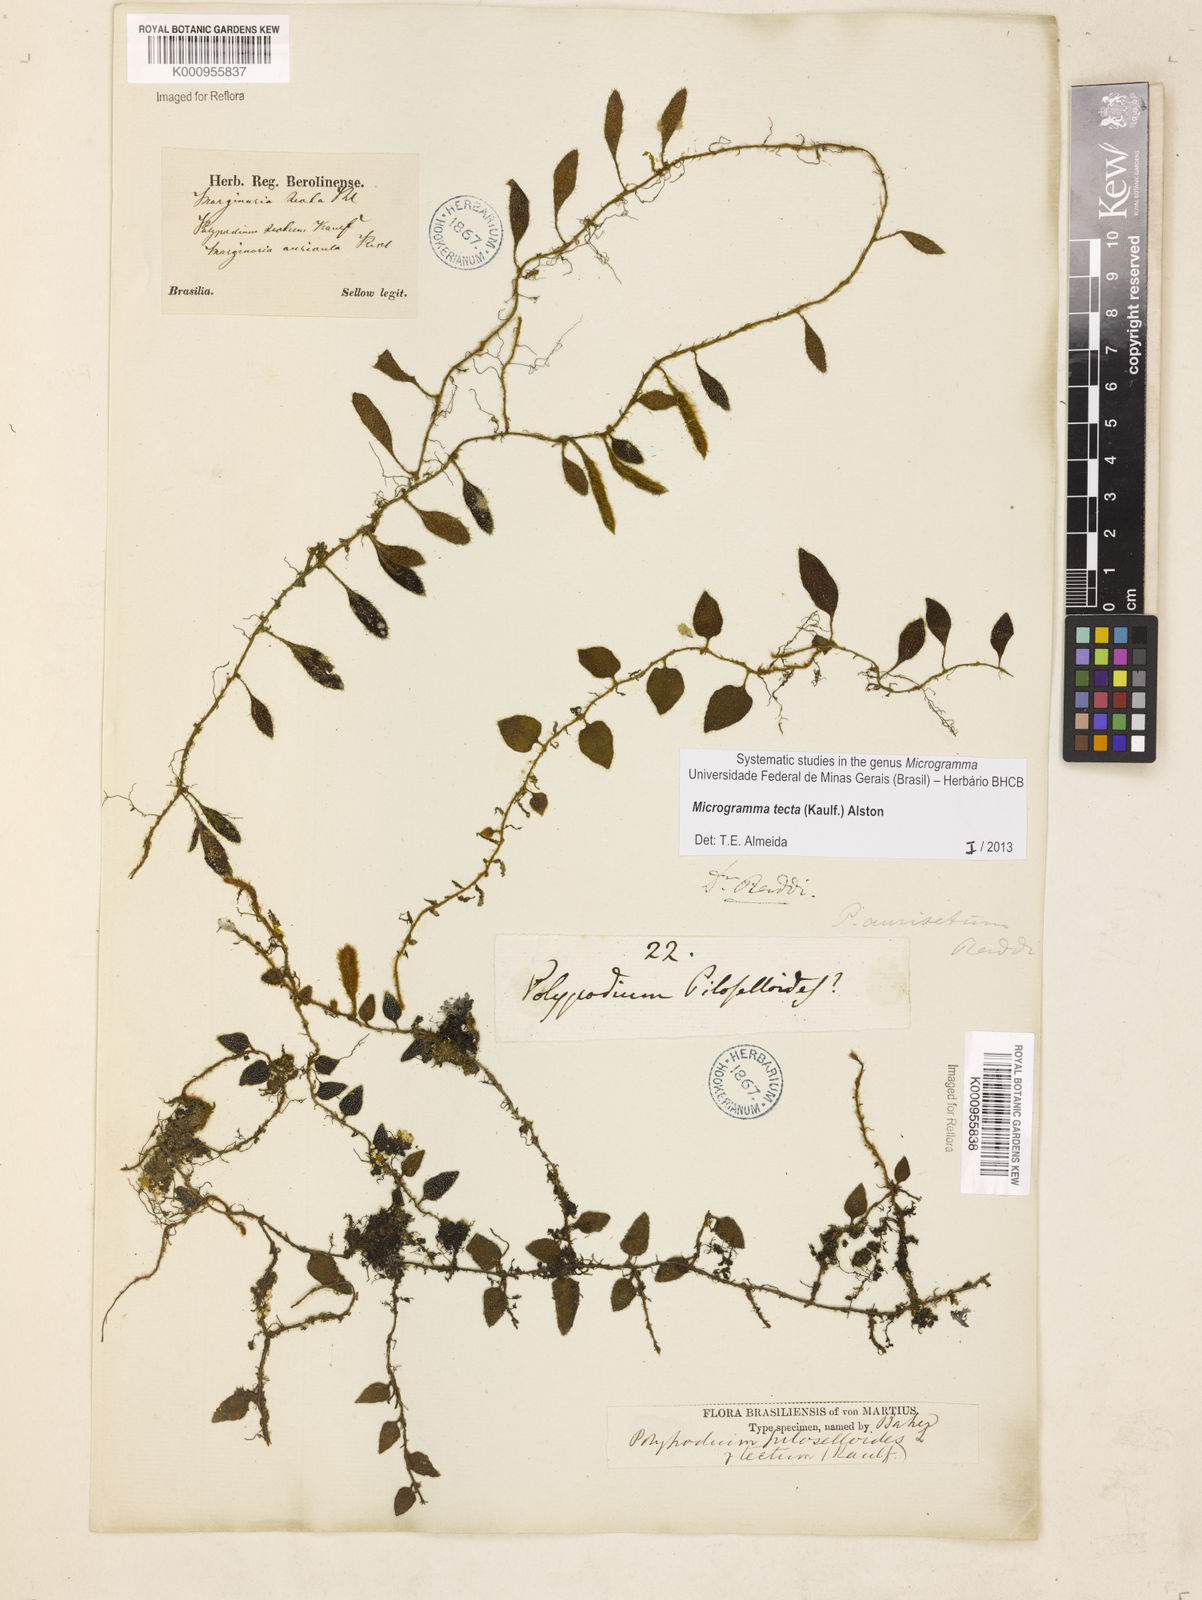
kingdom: Plantae
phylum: Tracheophyta
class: Polypodiopsida
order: Polypodiales
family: Polypodiaceae
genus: Microgramma
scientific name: Microgramma tecta
